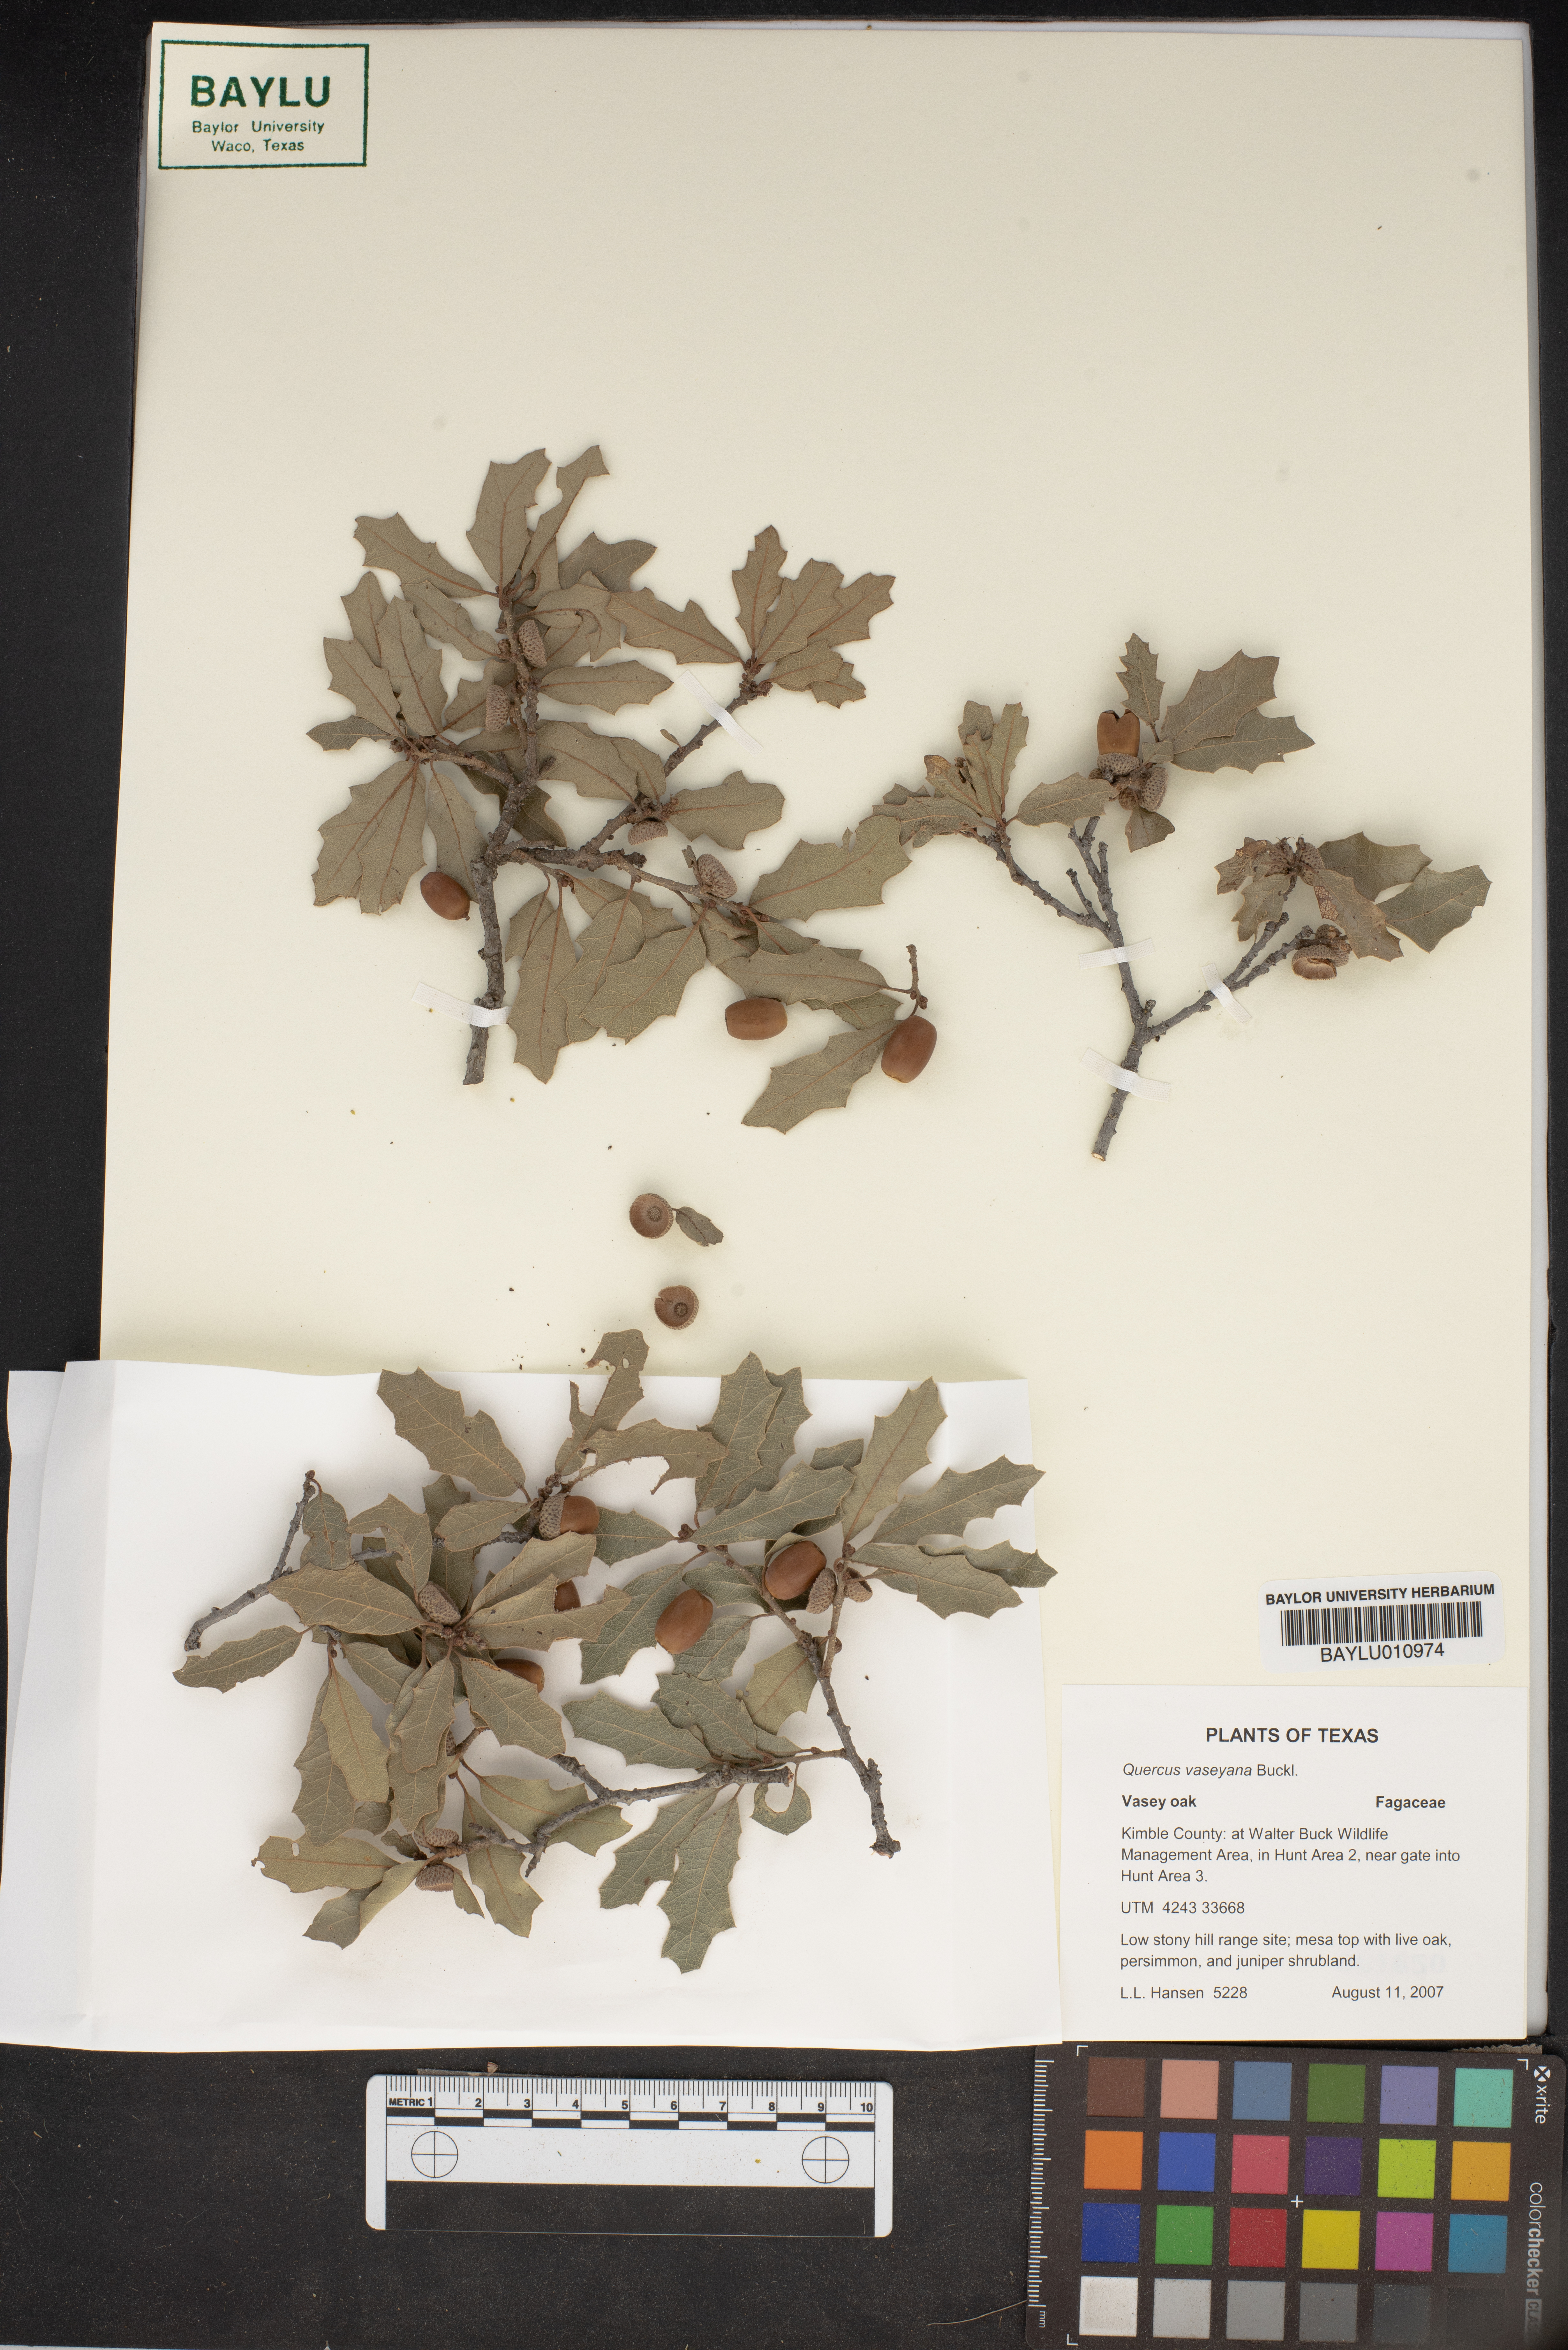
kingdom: Plantae
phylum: Tracheophyta
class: Magnoliopsida
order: Fagales
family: Fagaceae
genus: Quercus
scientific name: Quercus vaseyana
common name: Sandpaper oak
